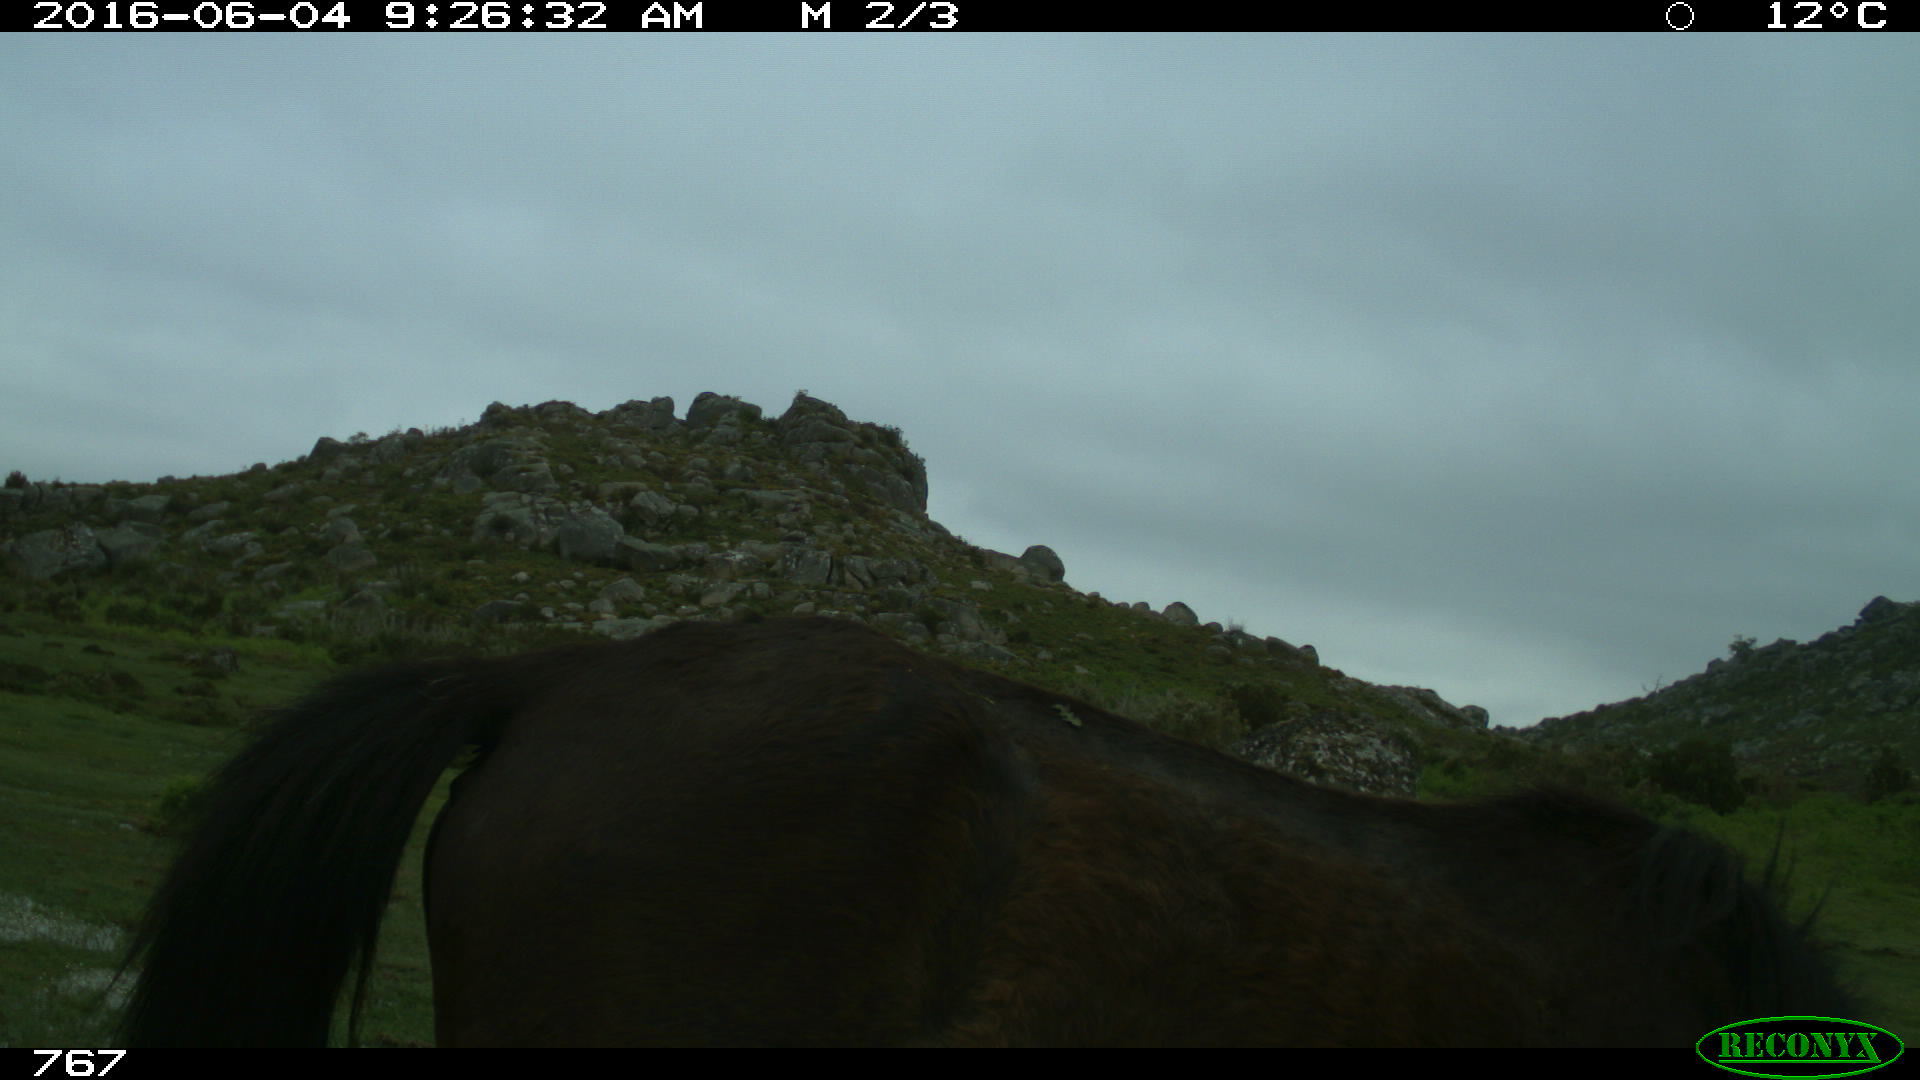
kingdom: Animalia
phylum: Chordata
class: Mammalia
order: Perissodactyla
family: Equidae
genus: Equus
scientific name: Equus caballus
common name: Horse
